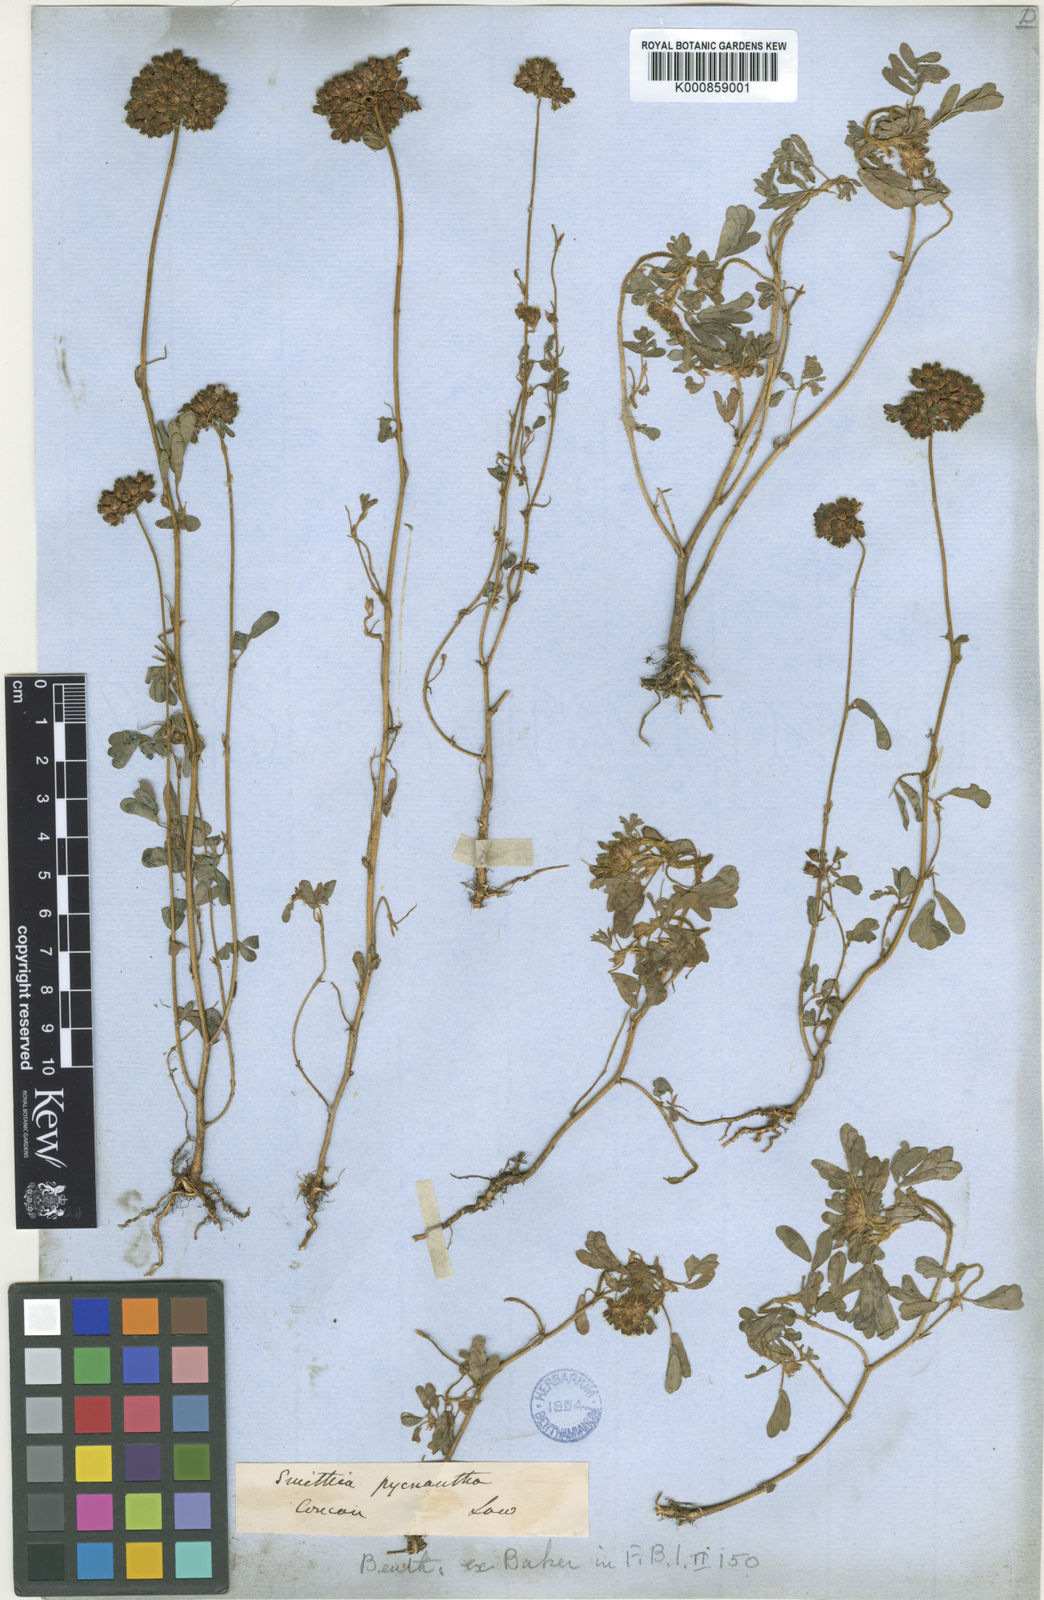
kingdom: Plantae
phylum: Tracheophyta
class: Magnoliopsida
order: Fabales
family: Fabaceae
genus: Smithia
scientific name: Smithia pycnantha
